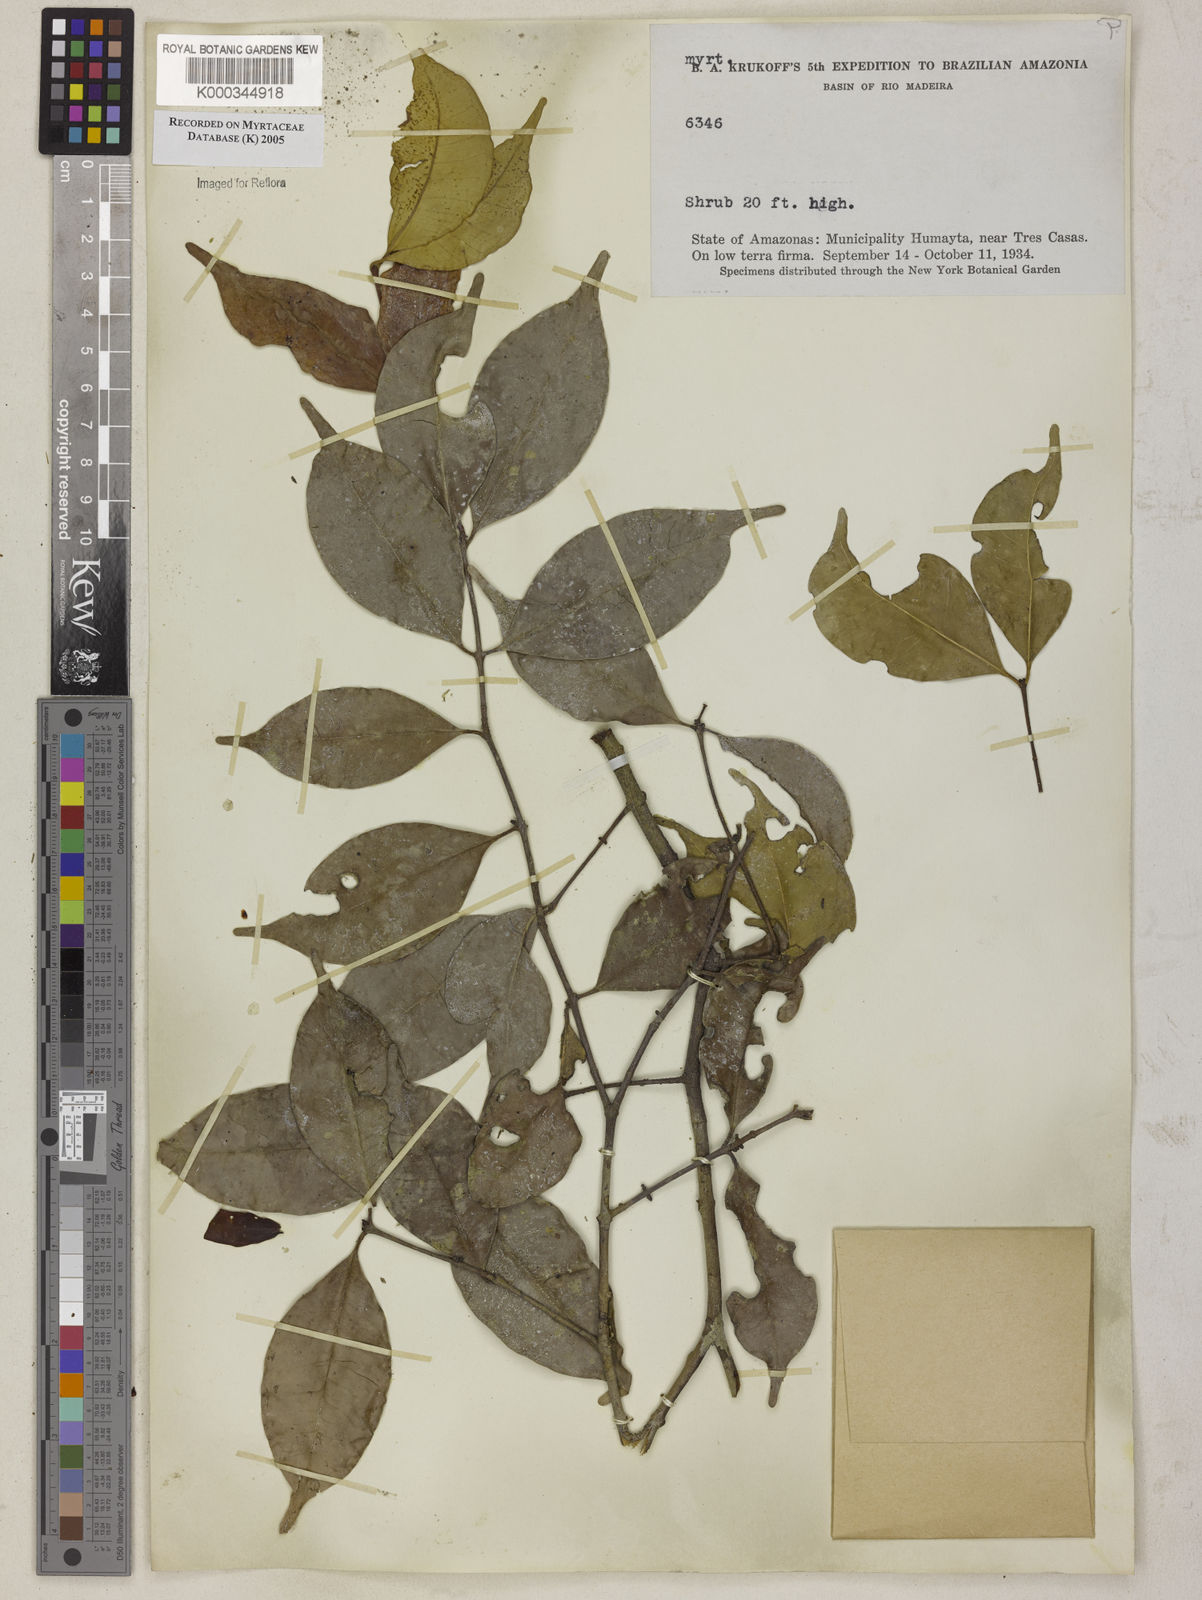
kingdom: Plantae
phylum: Tracheophyta
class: Magnoliopsida
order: Myrtales
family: Myrtaceae
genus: Myrcia
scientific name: Myrcia
